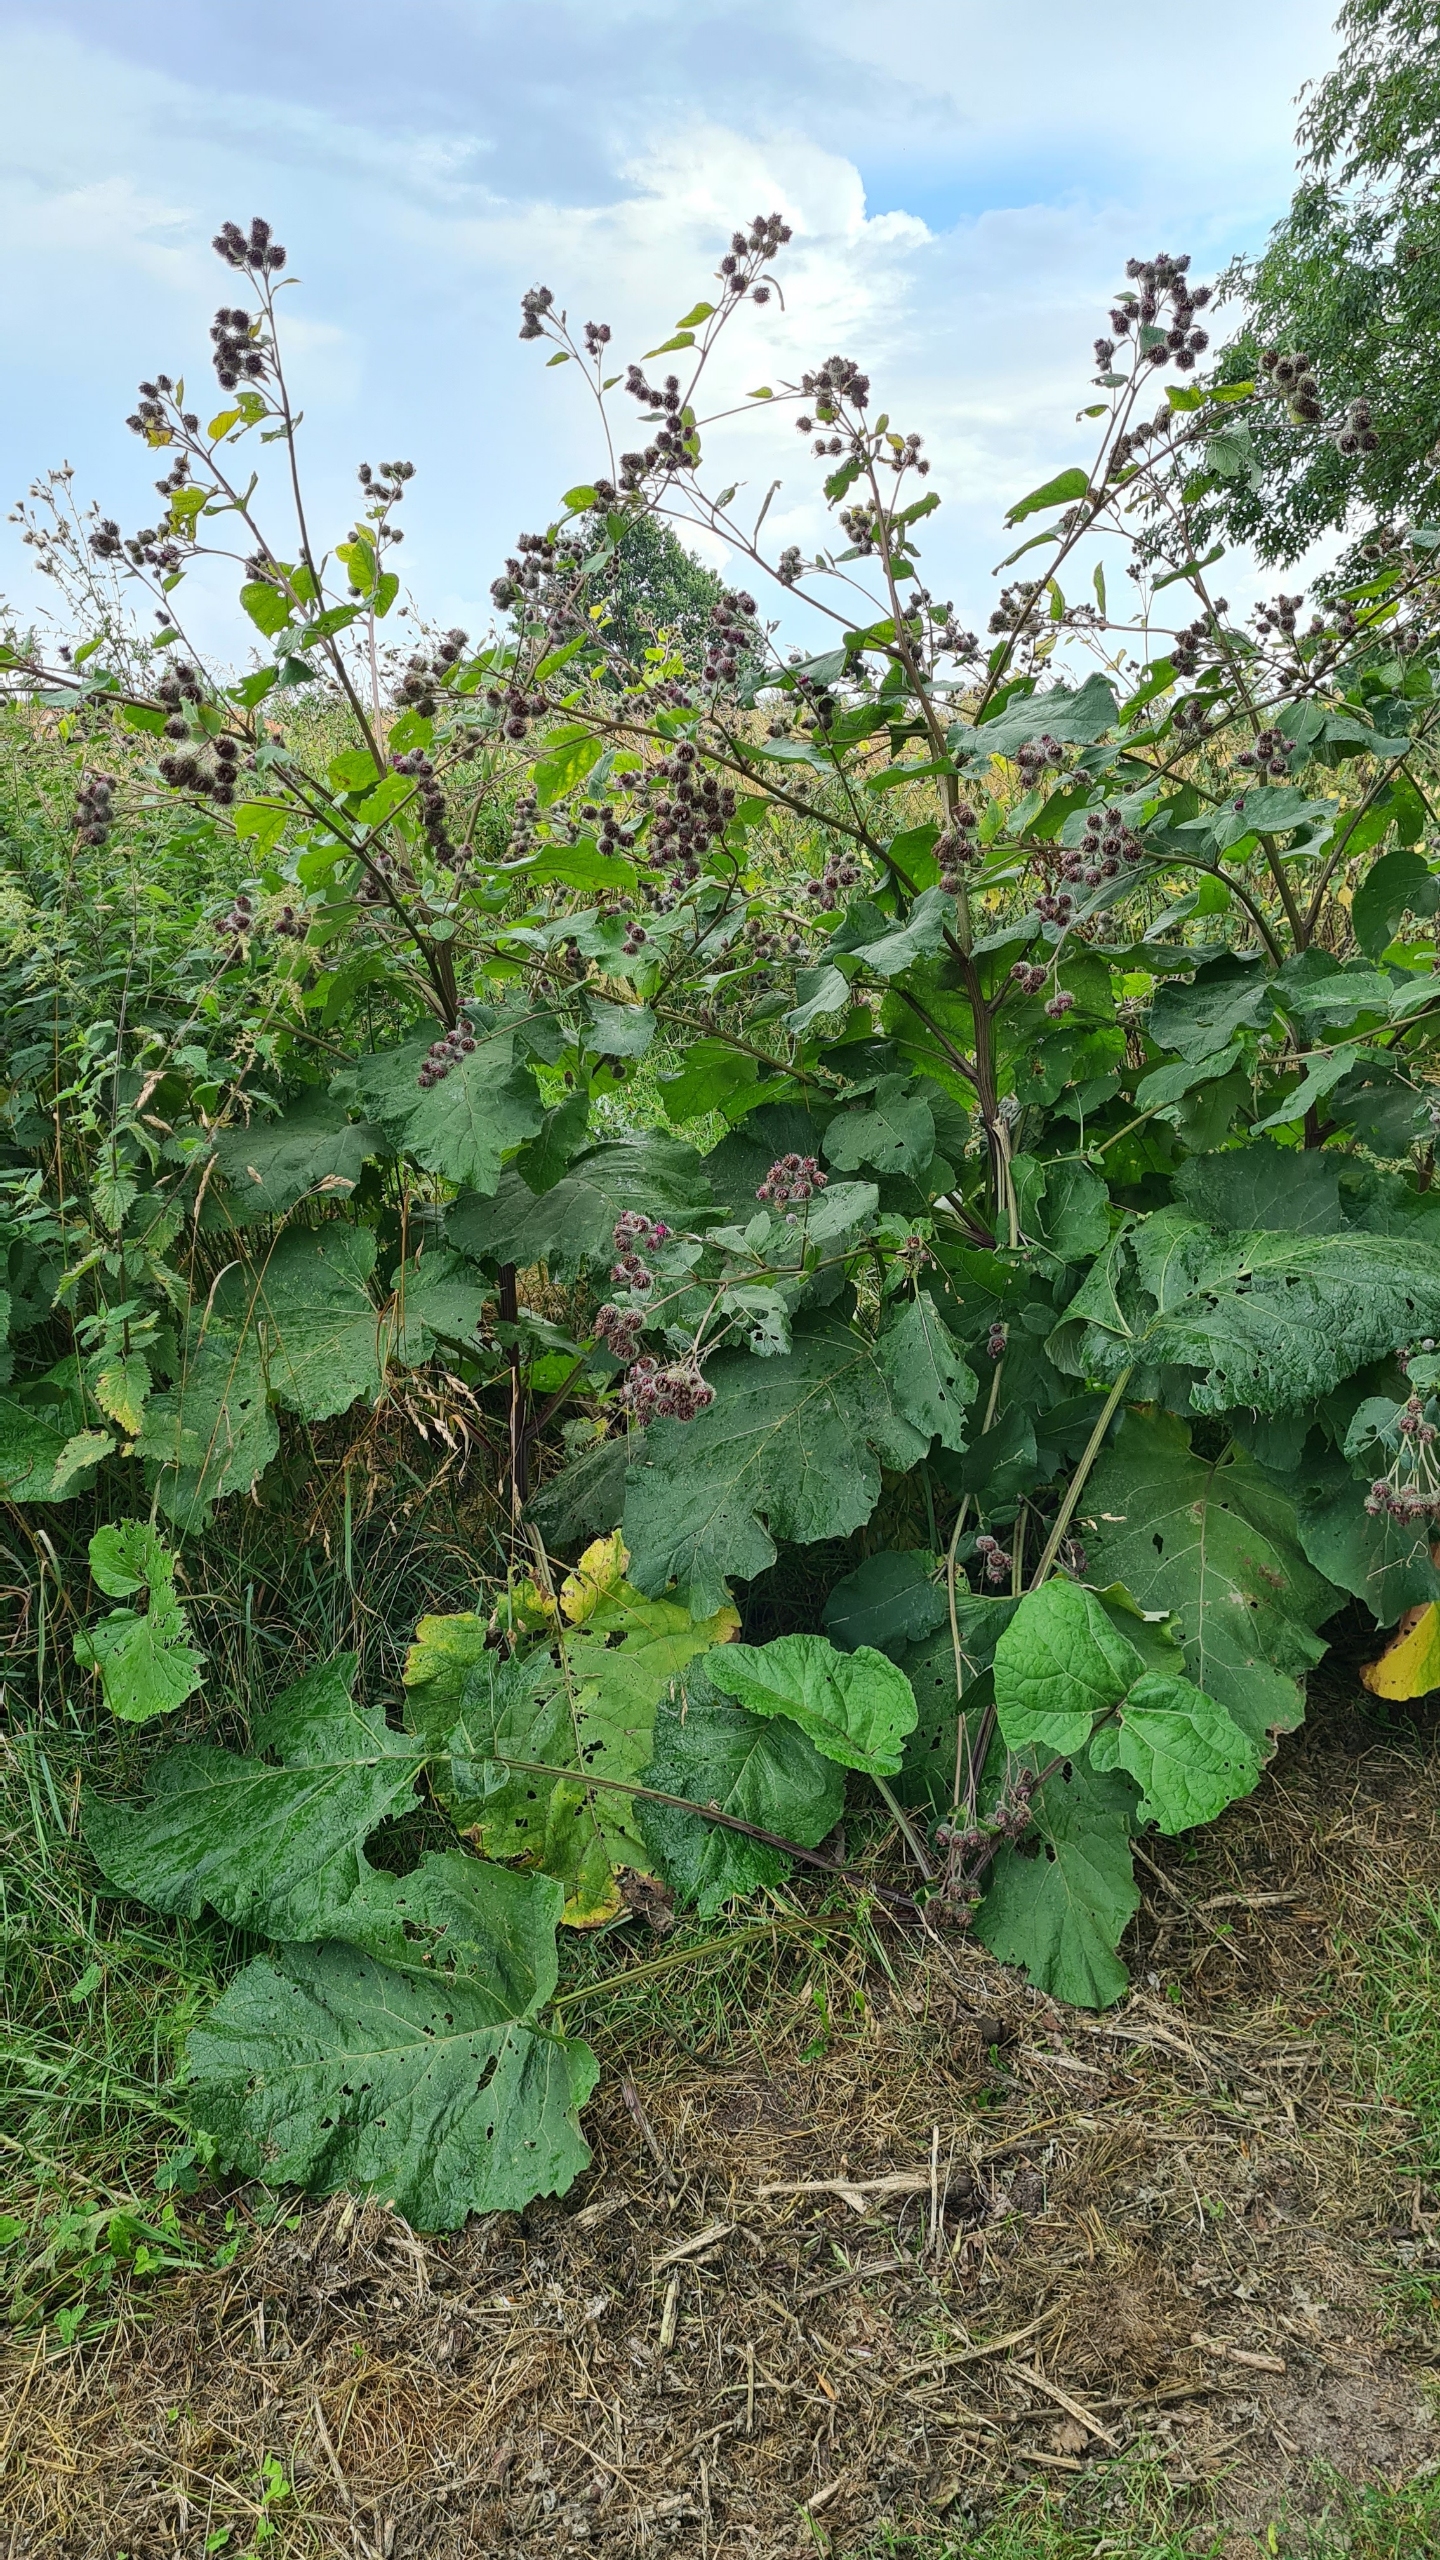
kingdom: Plantae
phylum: Tracheophyta
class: Magnoliopsida
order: Asterales
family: Asteraceae
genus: Arctium
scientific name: Arctium tomentosum
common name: Filtet burre
